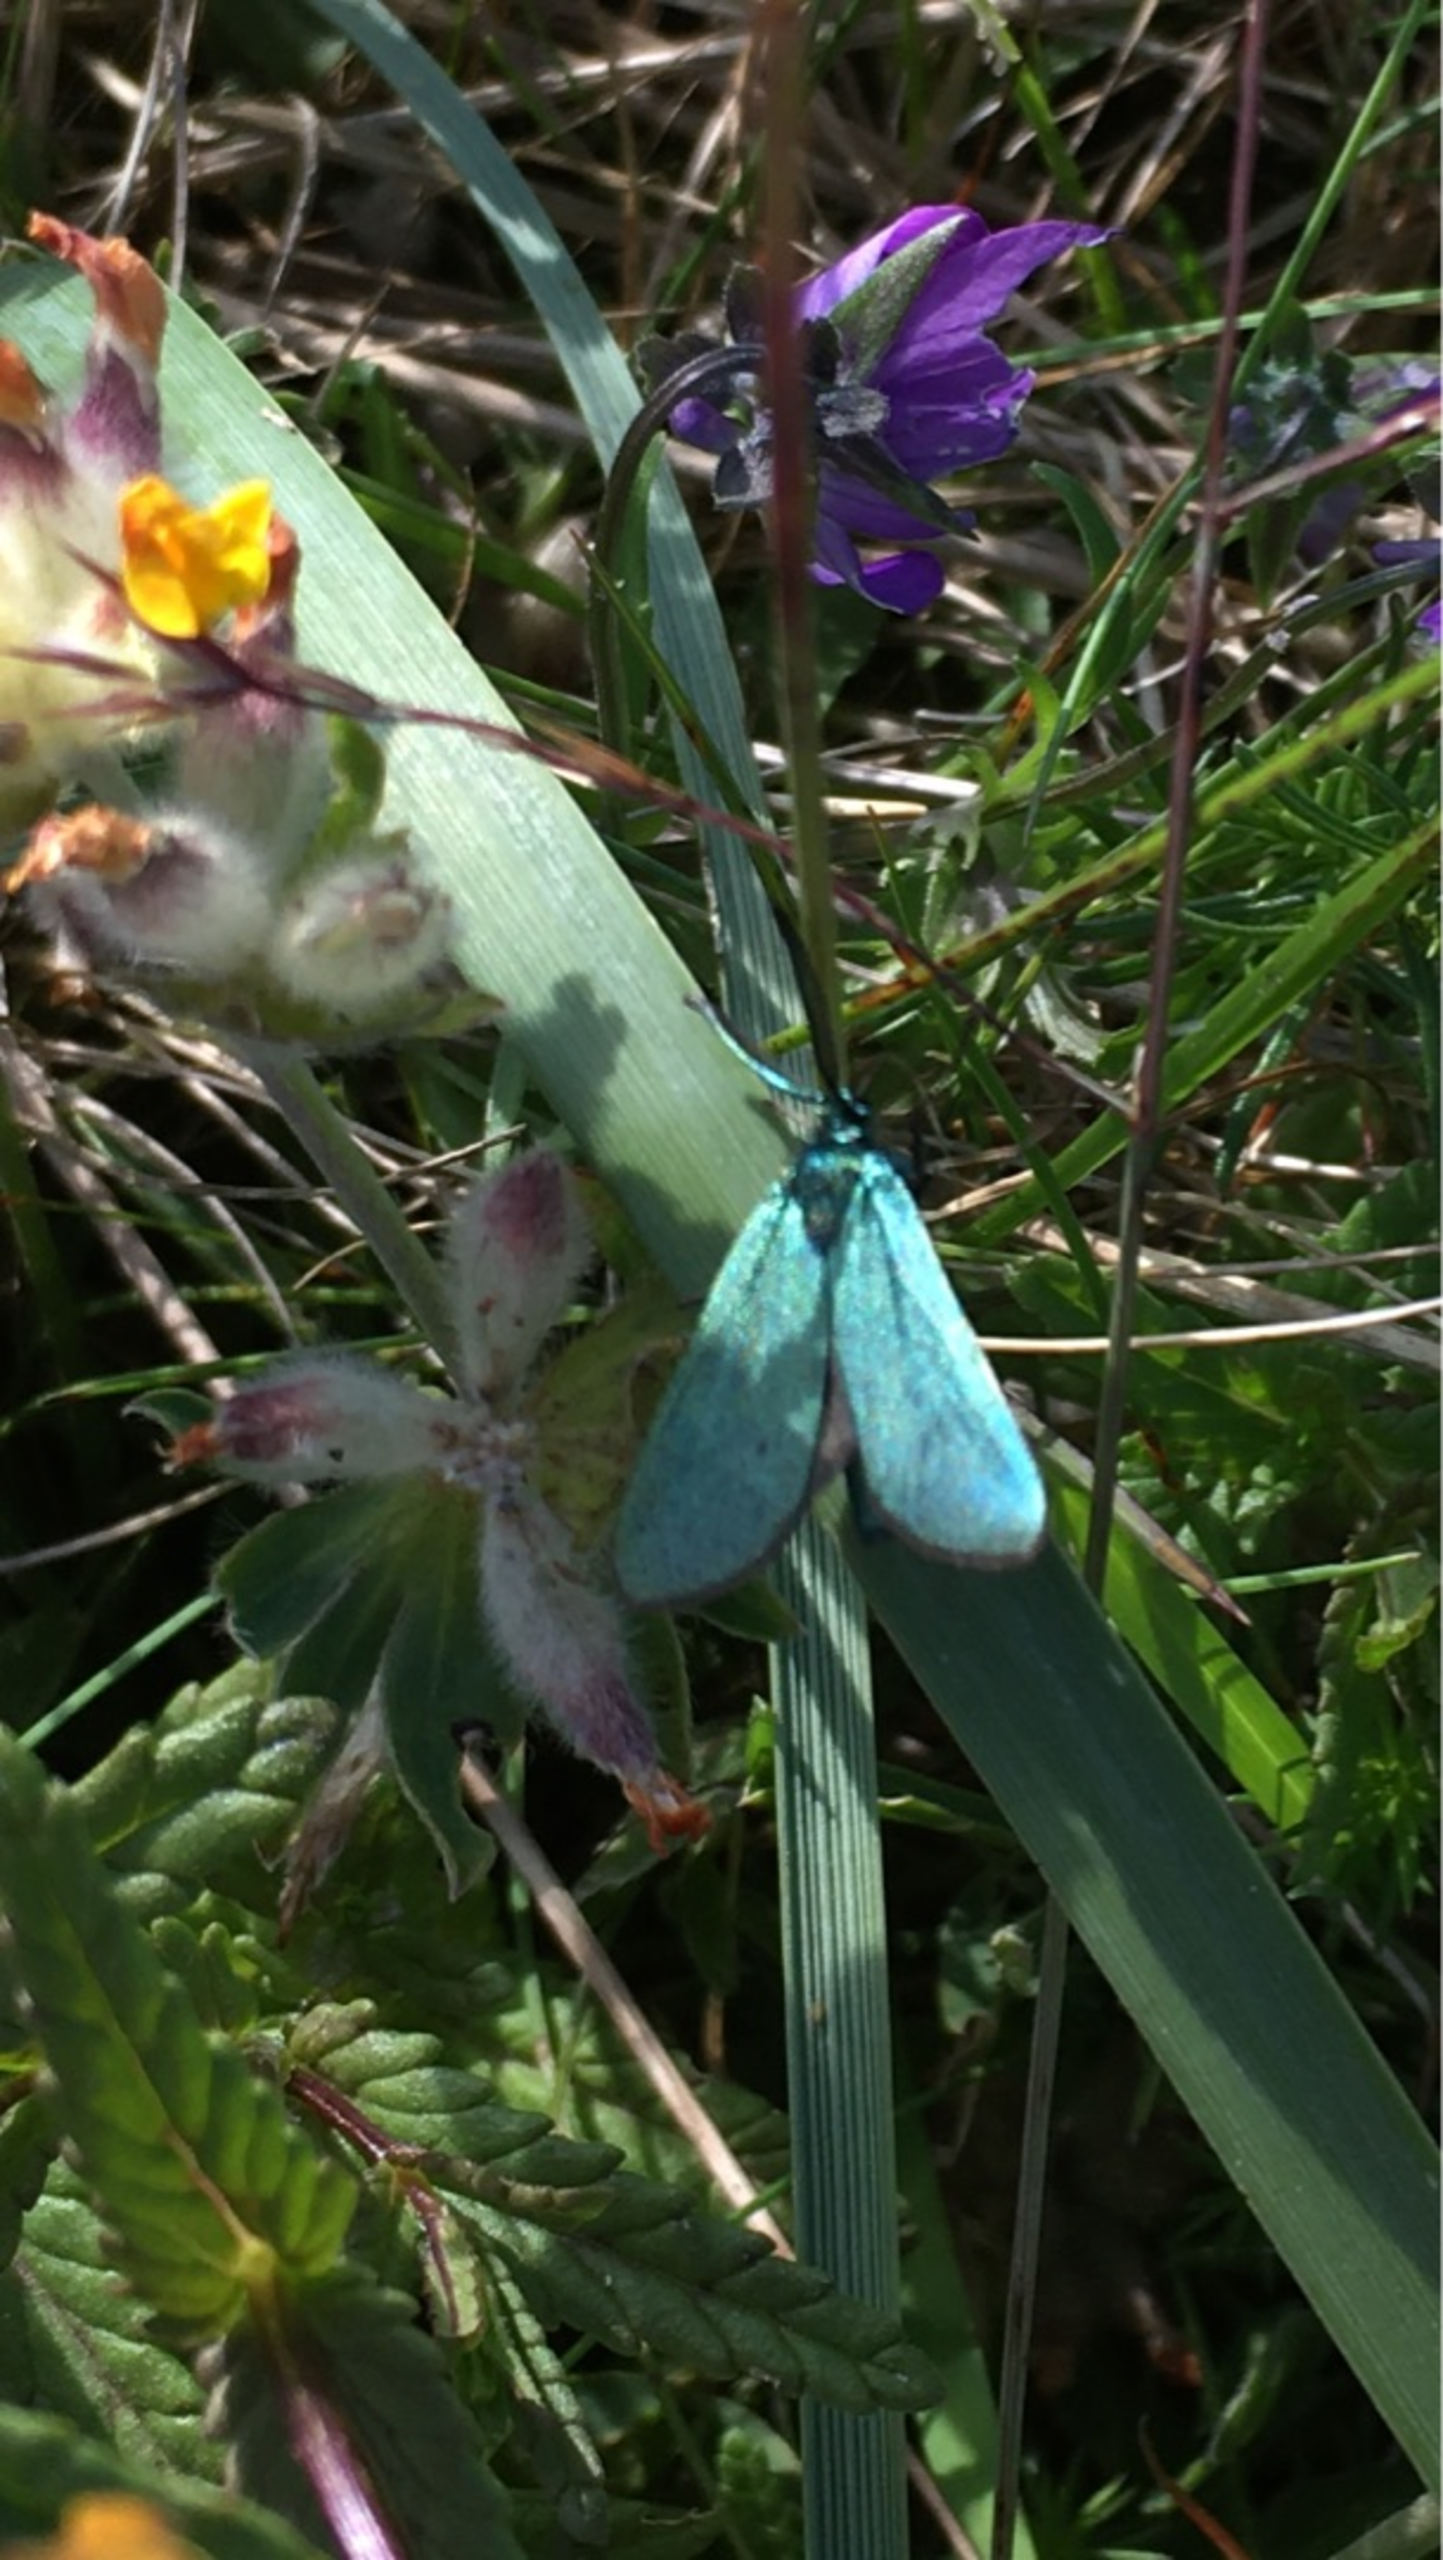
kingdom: Animalia
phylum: Arthropoda
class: Insecta
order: Lepidoptera
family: Zygaenidae
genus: Adscita
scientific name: Adscita statices
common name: Metalvinge
